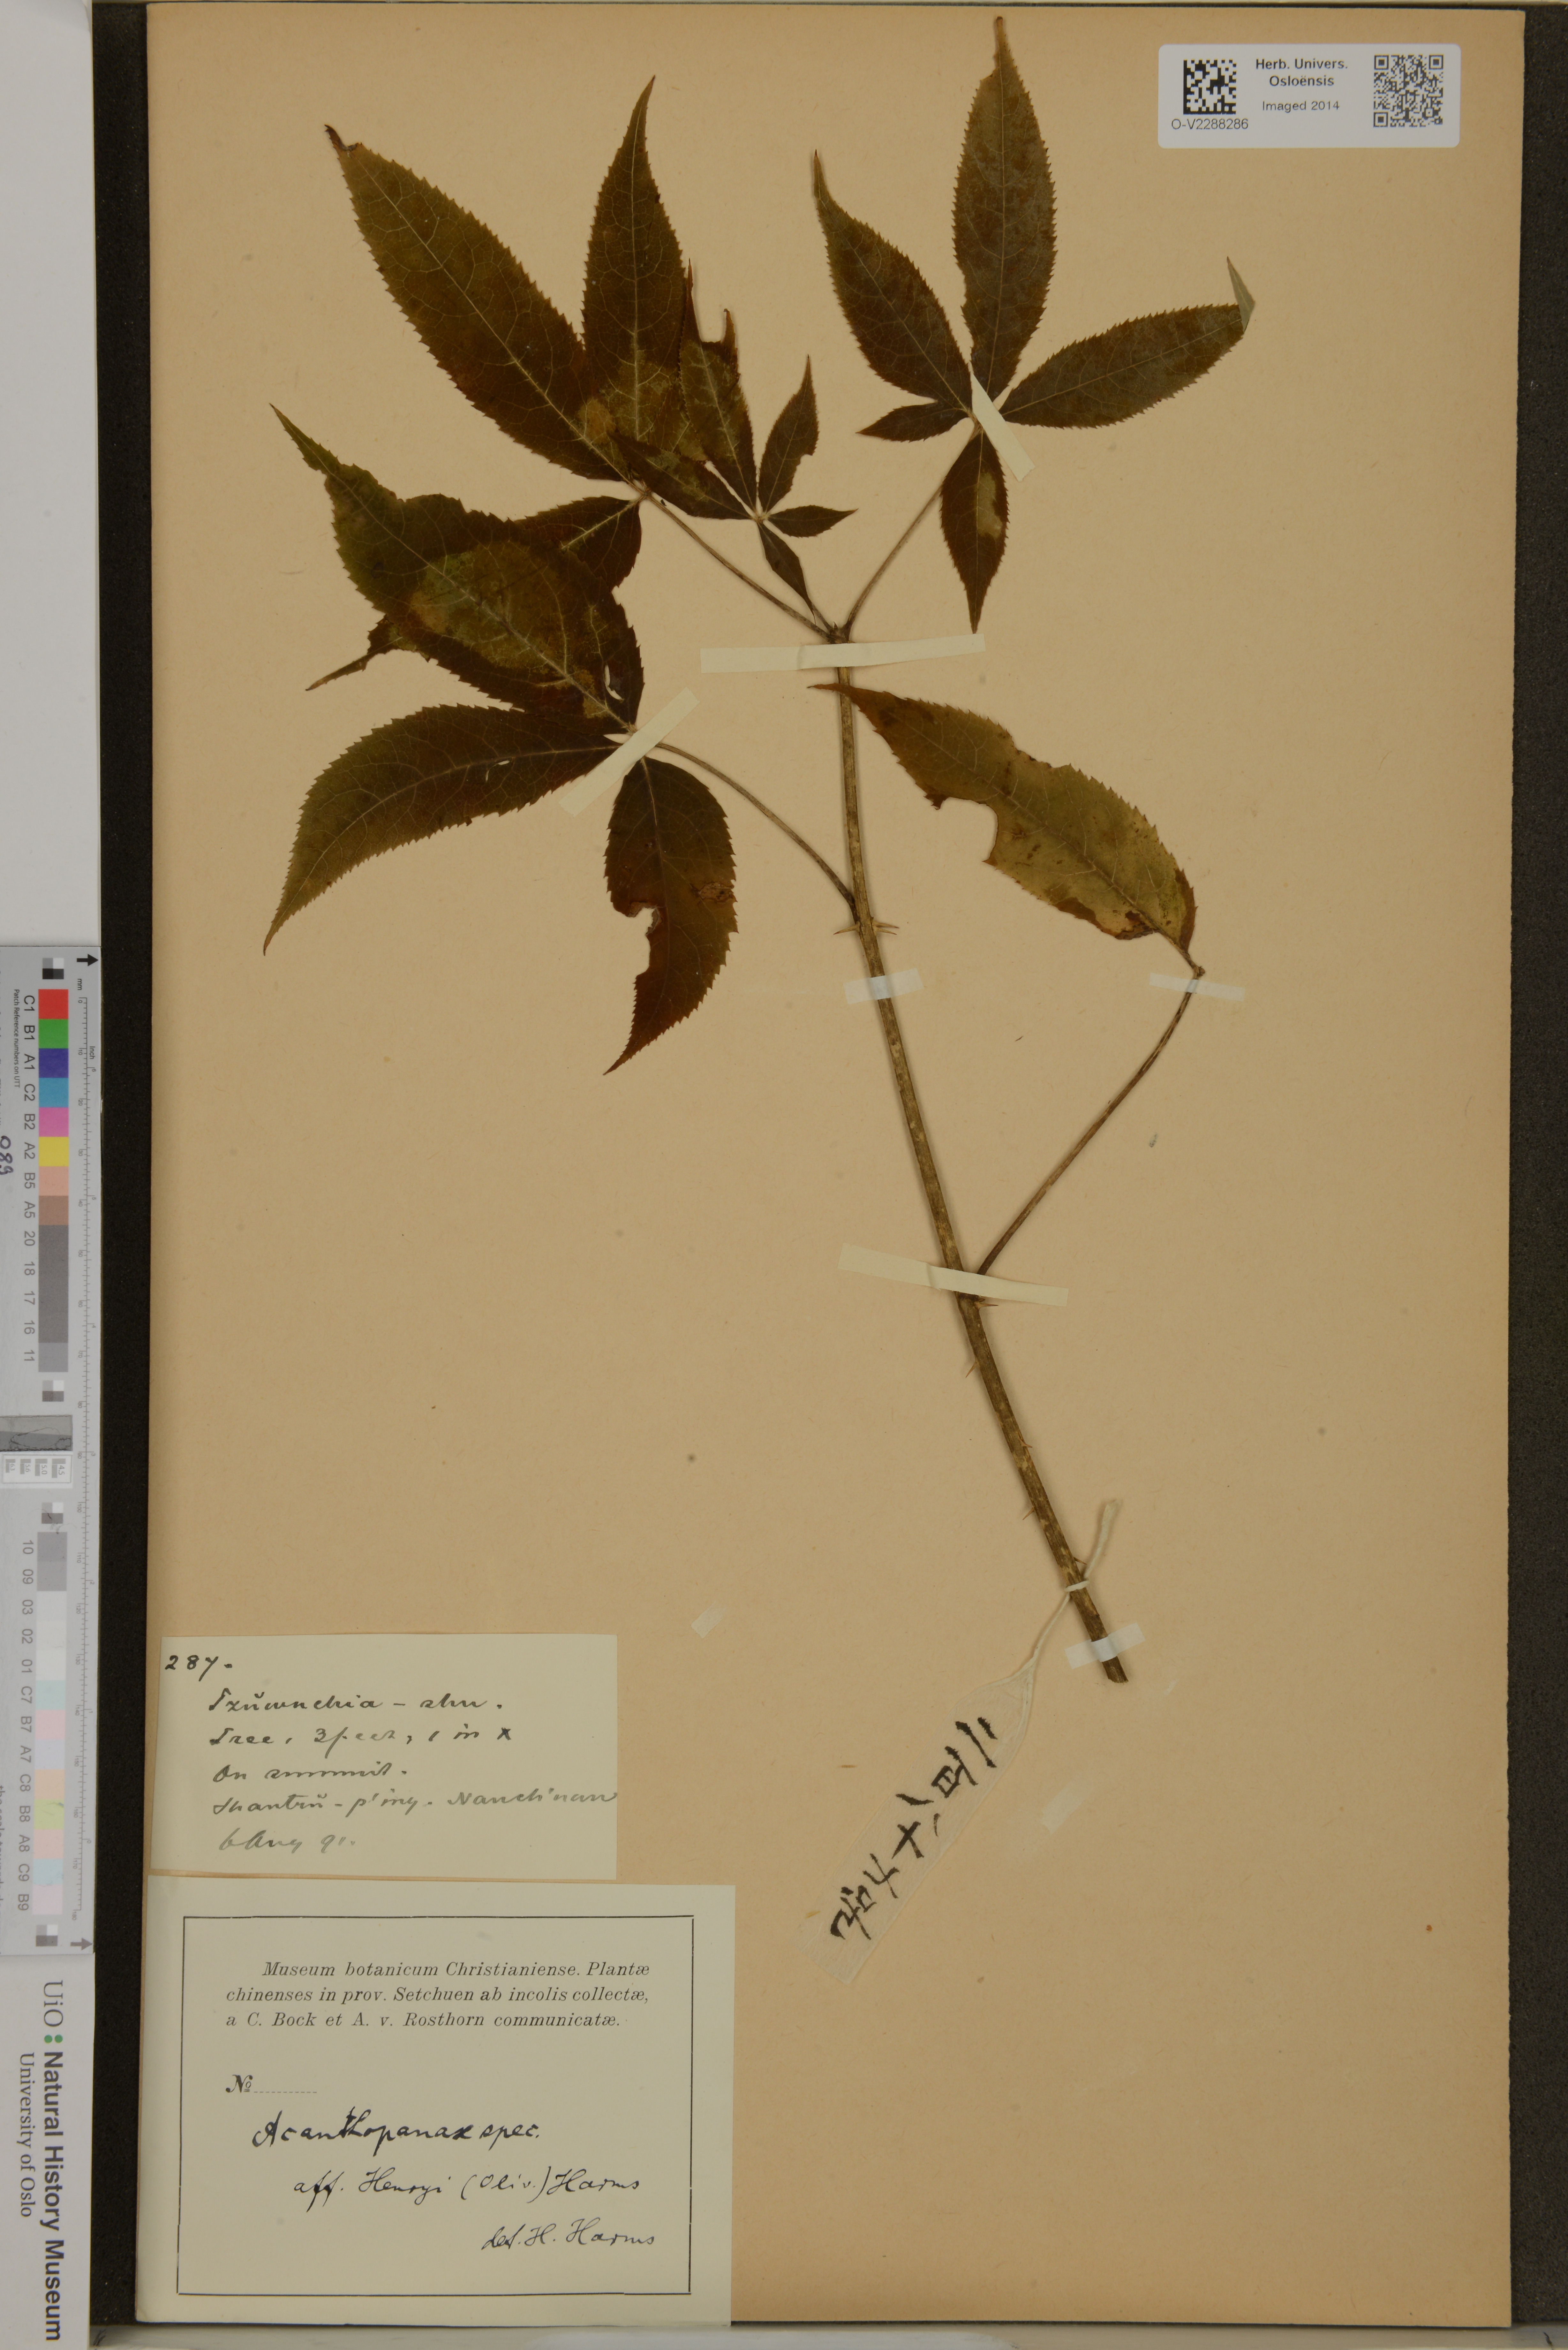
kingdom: Plantae
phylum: Tracheophyta
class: Magnoliopsida
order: Apiales
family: Araliaceae
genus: Acanthopanax
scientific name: Acanthopanax
